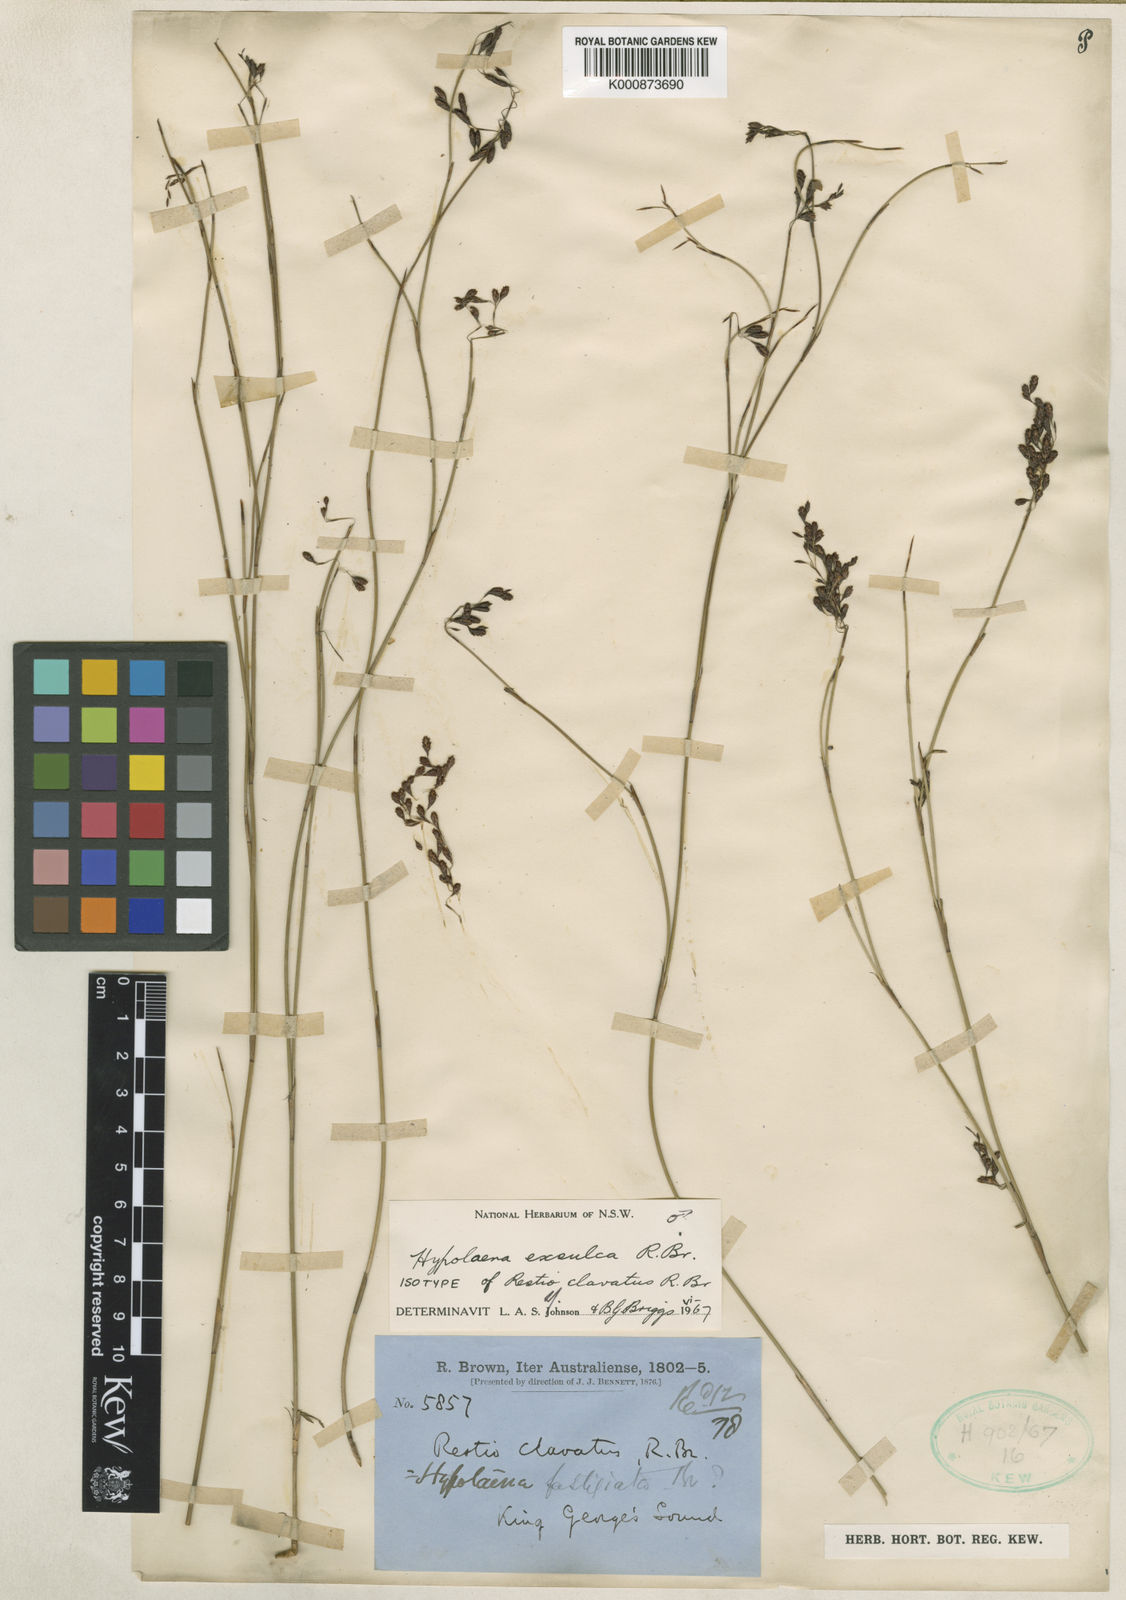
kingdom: Plantae
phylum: Tracheophyta
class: Liliopsida
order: Poales
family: Restionaceae
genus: Hypolaena
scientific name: Hypolaena exsulca
